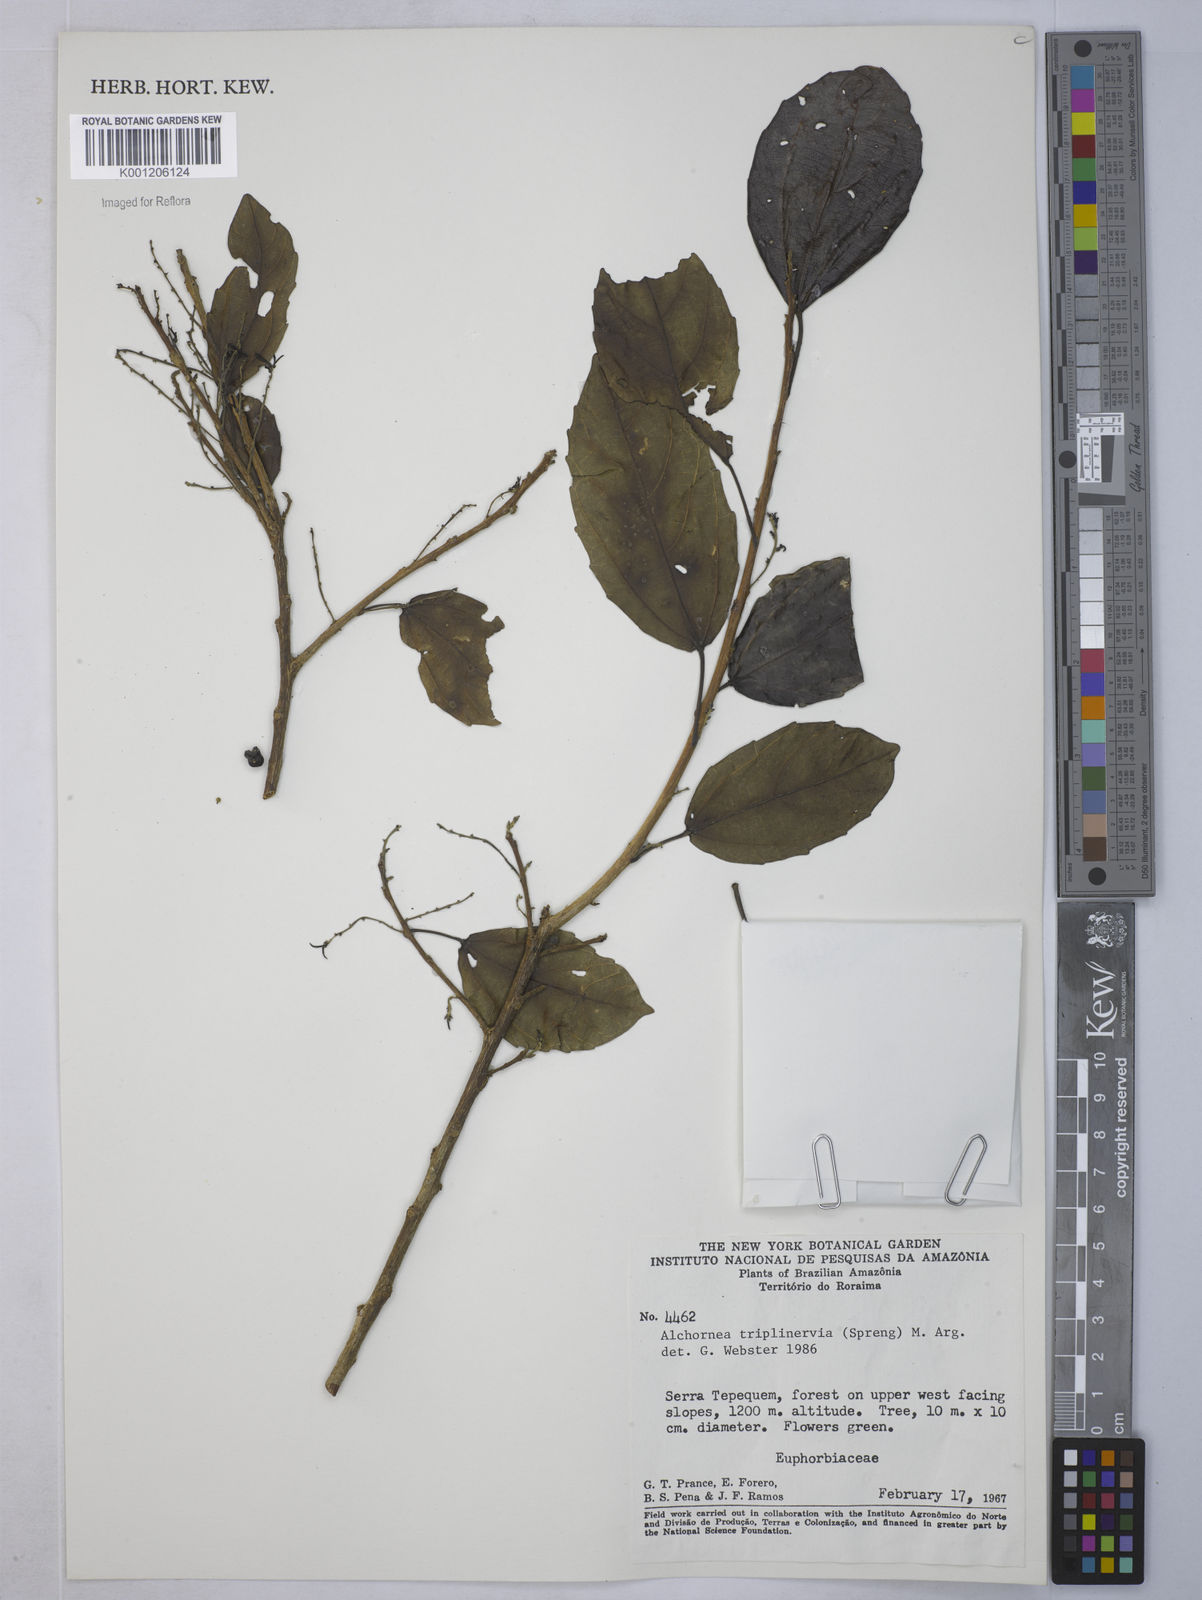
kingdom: Plantae
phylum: Tracheophyta
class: Magnoliopsida
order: Malpighiales
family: Euphorbiaceae
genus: Alchornea
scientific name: Alchornea
